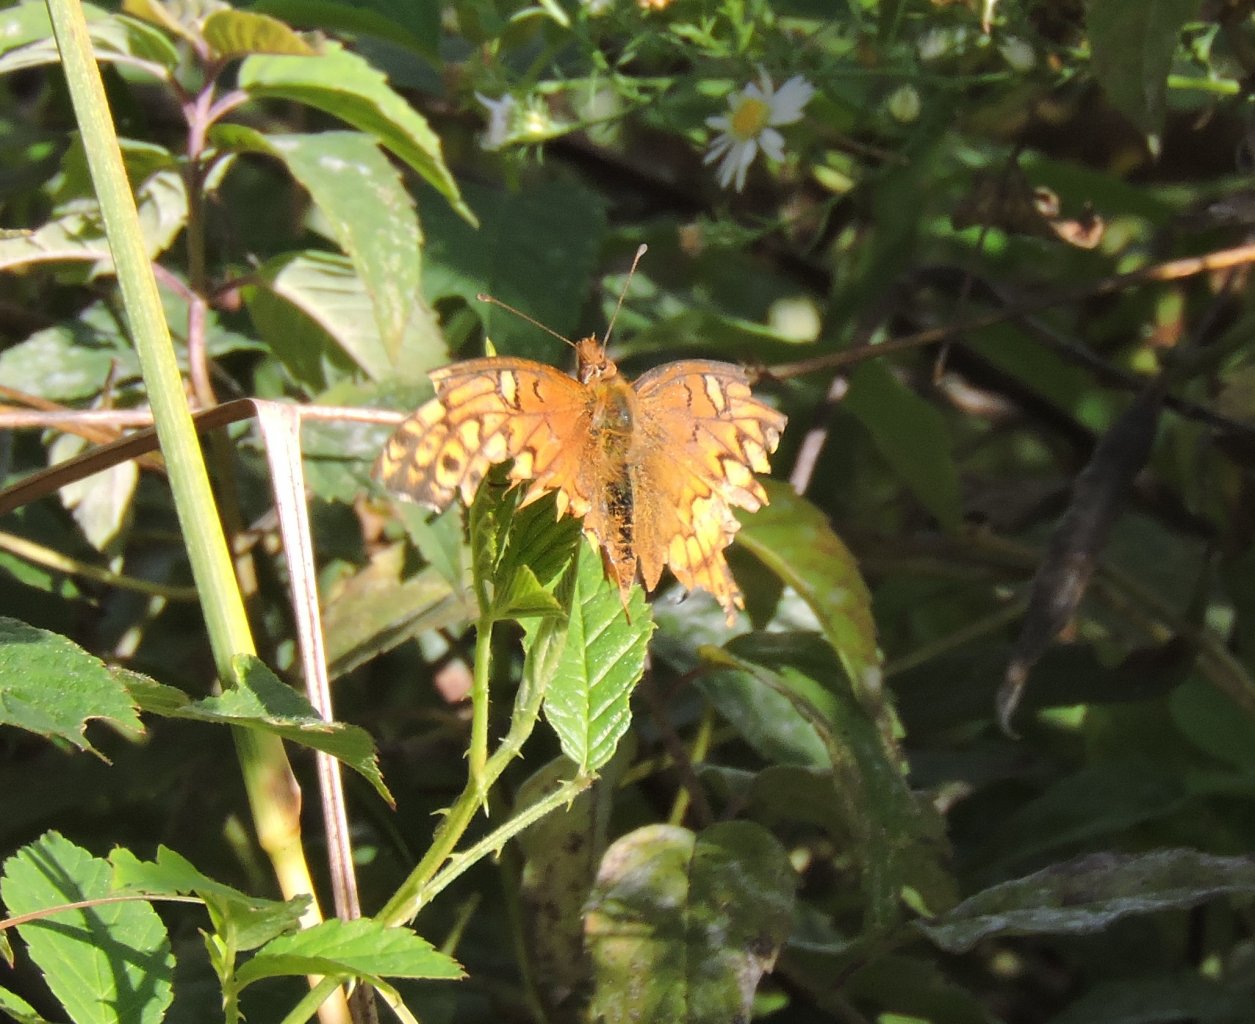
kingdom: Animalia
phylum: Arthropoda
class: Insecta
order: Lepidoptera
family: Nymphalidae
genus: Euptoieta
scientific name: Euptoieta claudia
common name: Variegated Fritillary
